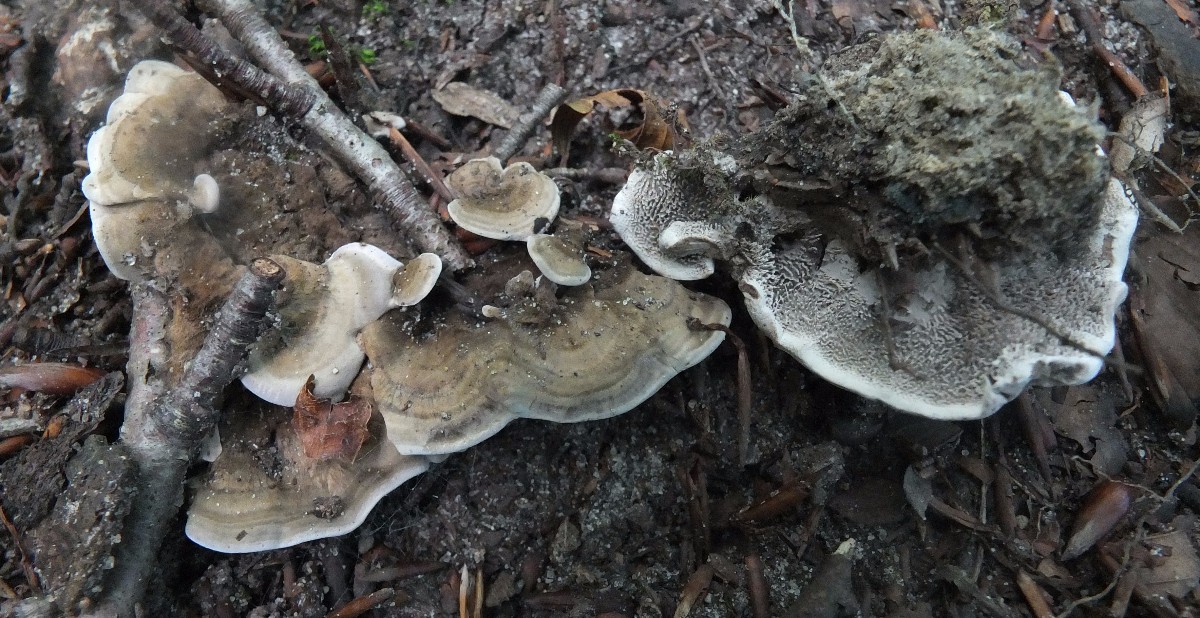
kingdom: Fungi
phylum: Basidiomycota
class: Agaricomycetes
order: Thelephorales
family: Thelephoraceae
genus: Phellodon
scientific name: Phellodon niger
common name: Black tooth
